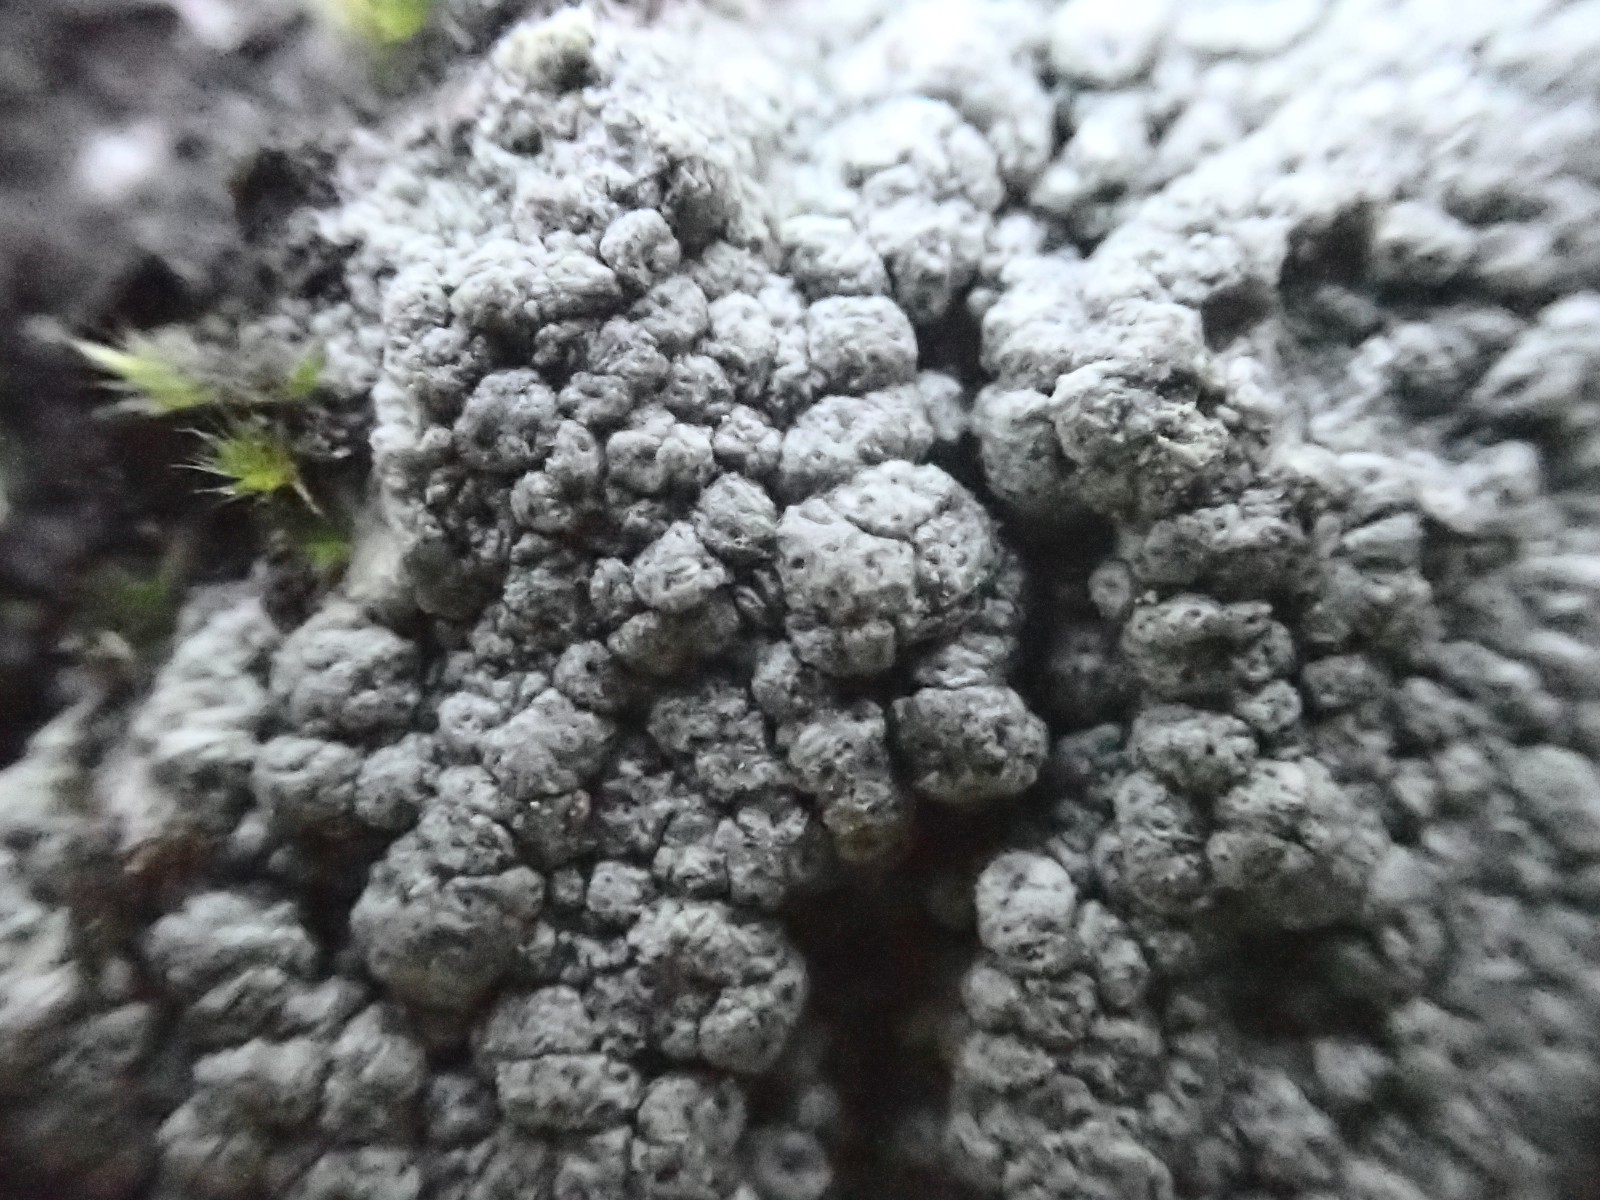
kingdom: Fungi
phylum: Ascomycota
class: Lecanoromycetes
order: Pertusariales
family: Pertusariaceae
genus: Pertusaria
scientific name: Pertusaria pertusa
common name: almindelig prikvortelav
